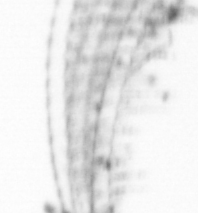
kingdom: Chromista
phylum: Ochrophyta
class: Bacillariophyceae
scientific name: Bacillariophyceae
